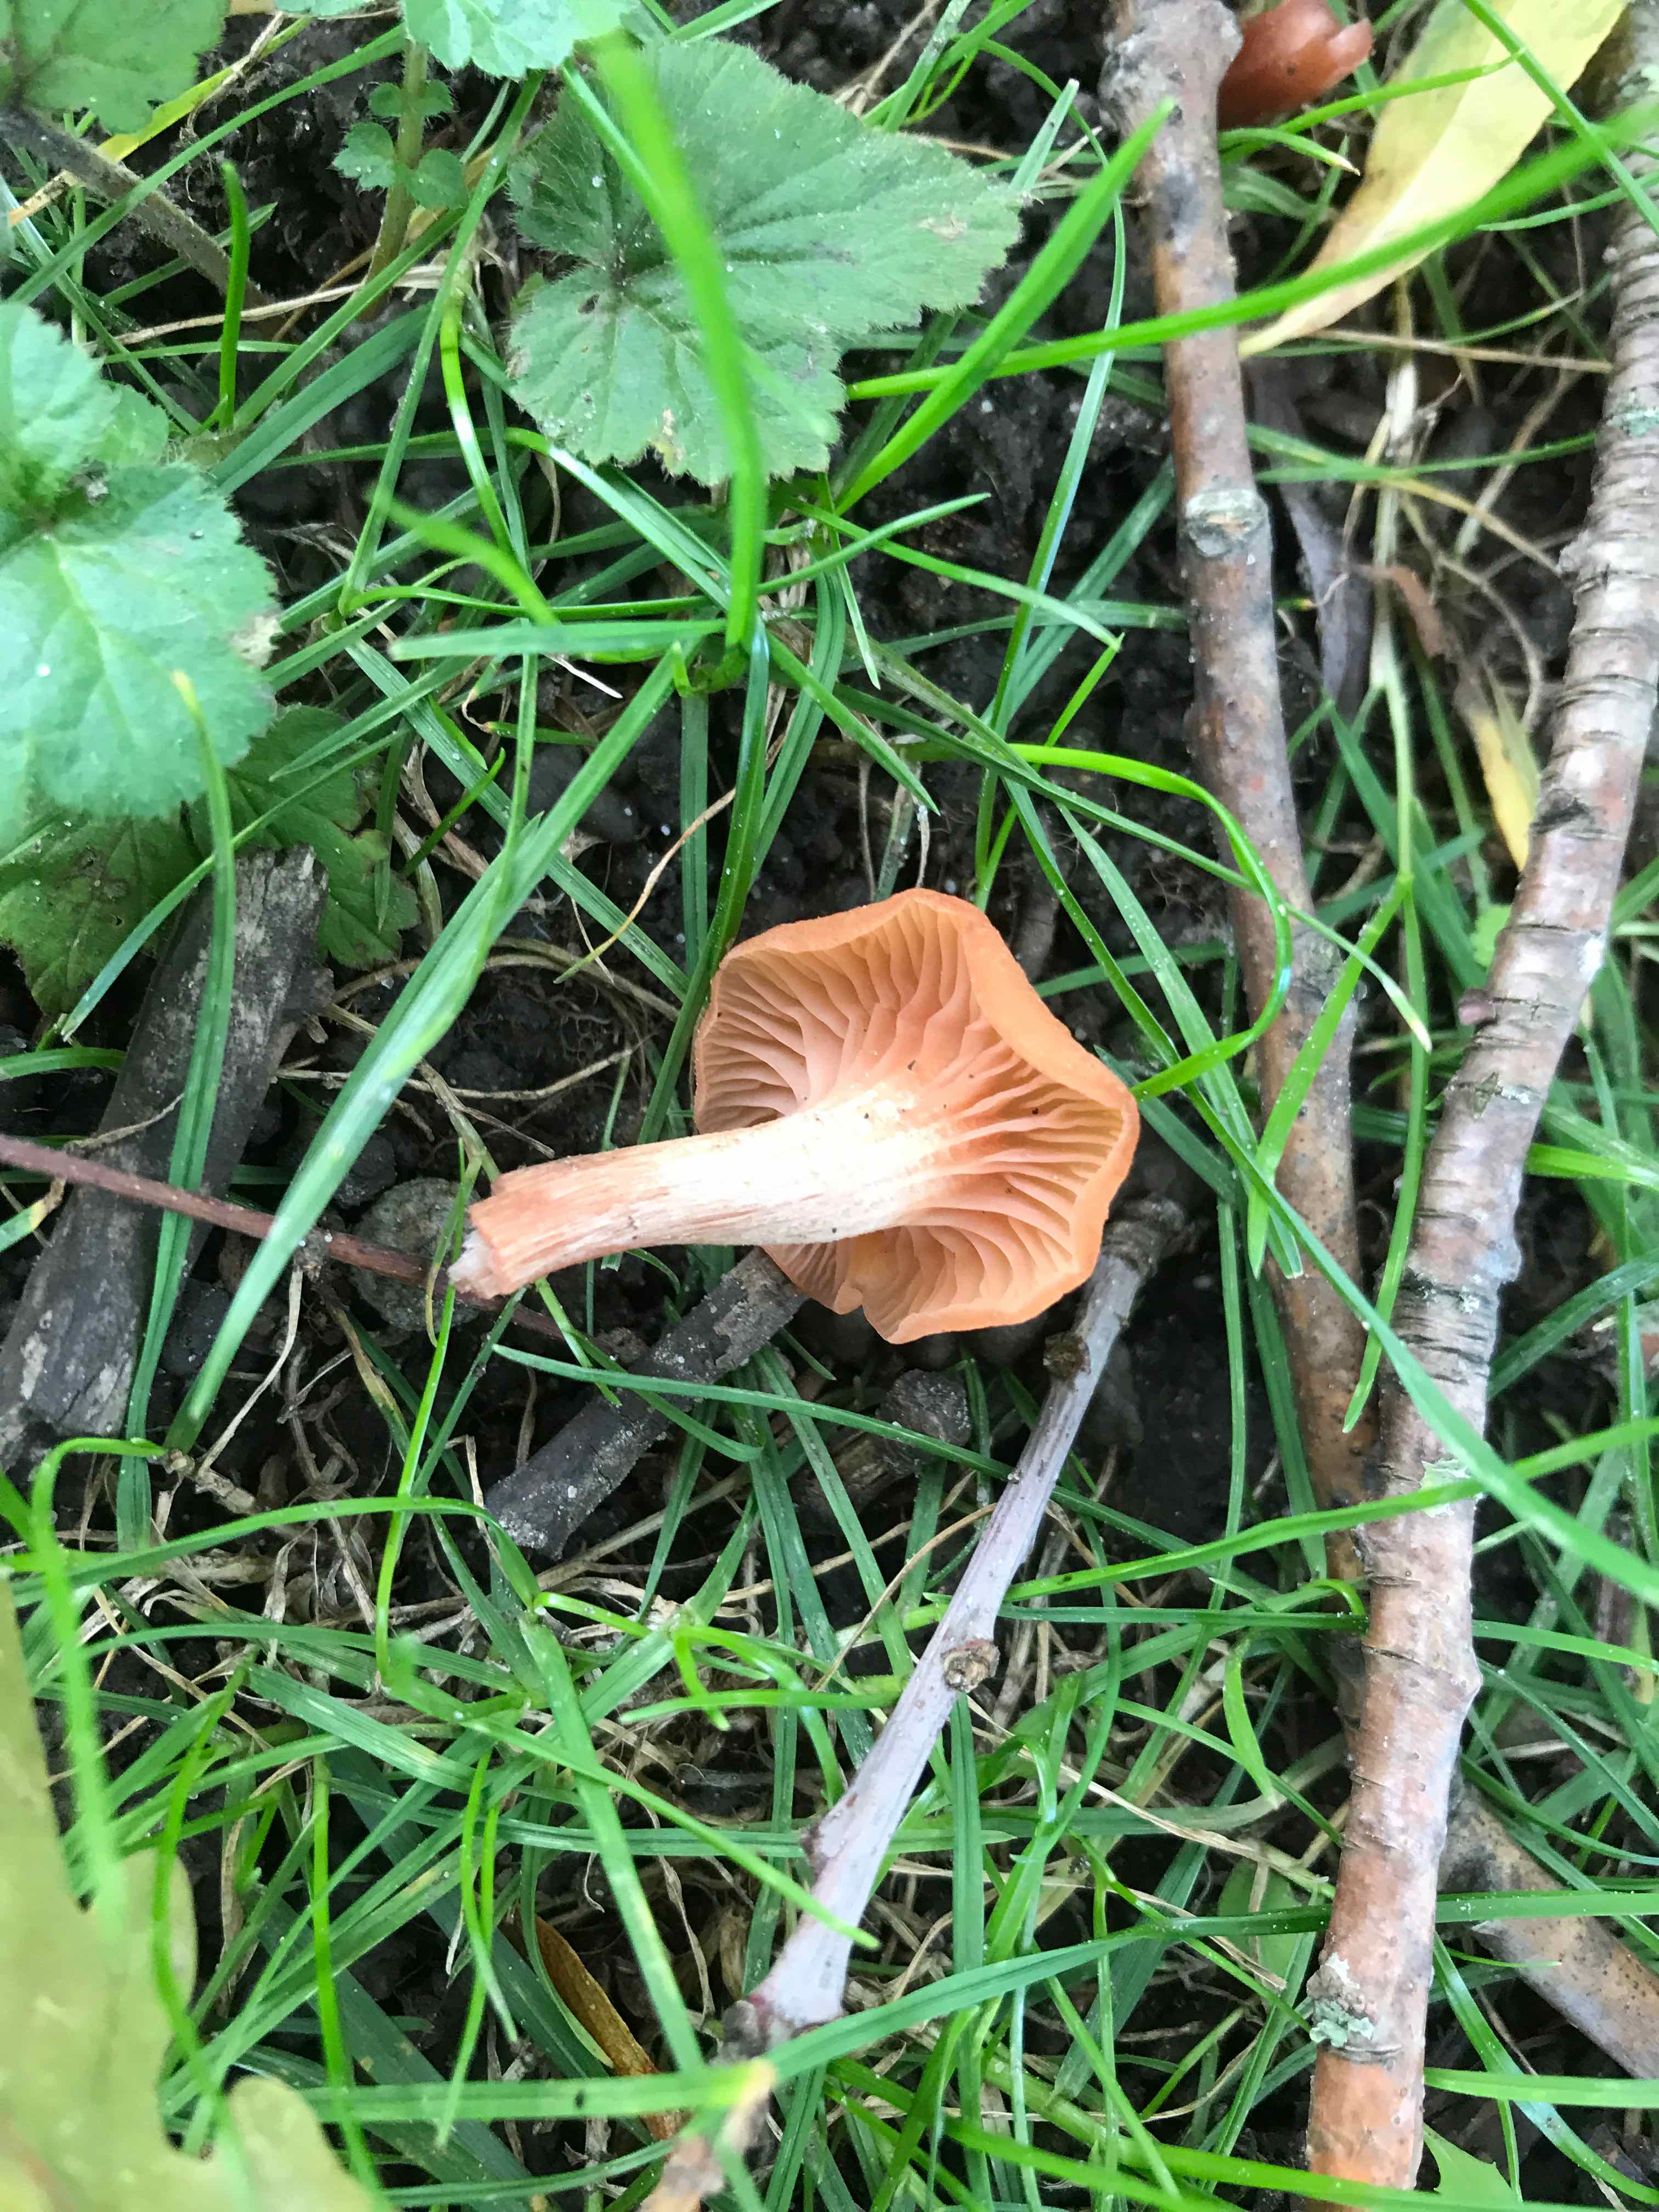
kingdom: Fungi
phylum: Basidiomycota
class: Agaricomycetes
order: Agaricales
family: Hydnangiaceae
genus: Laccaria
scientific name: Laccaria laccata
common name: rød ametysthat
